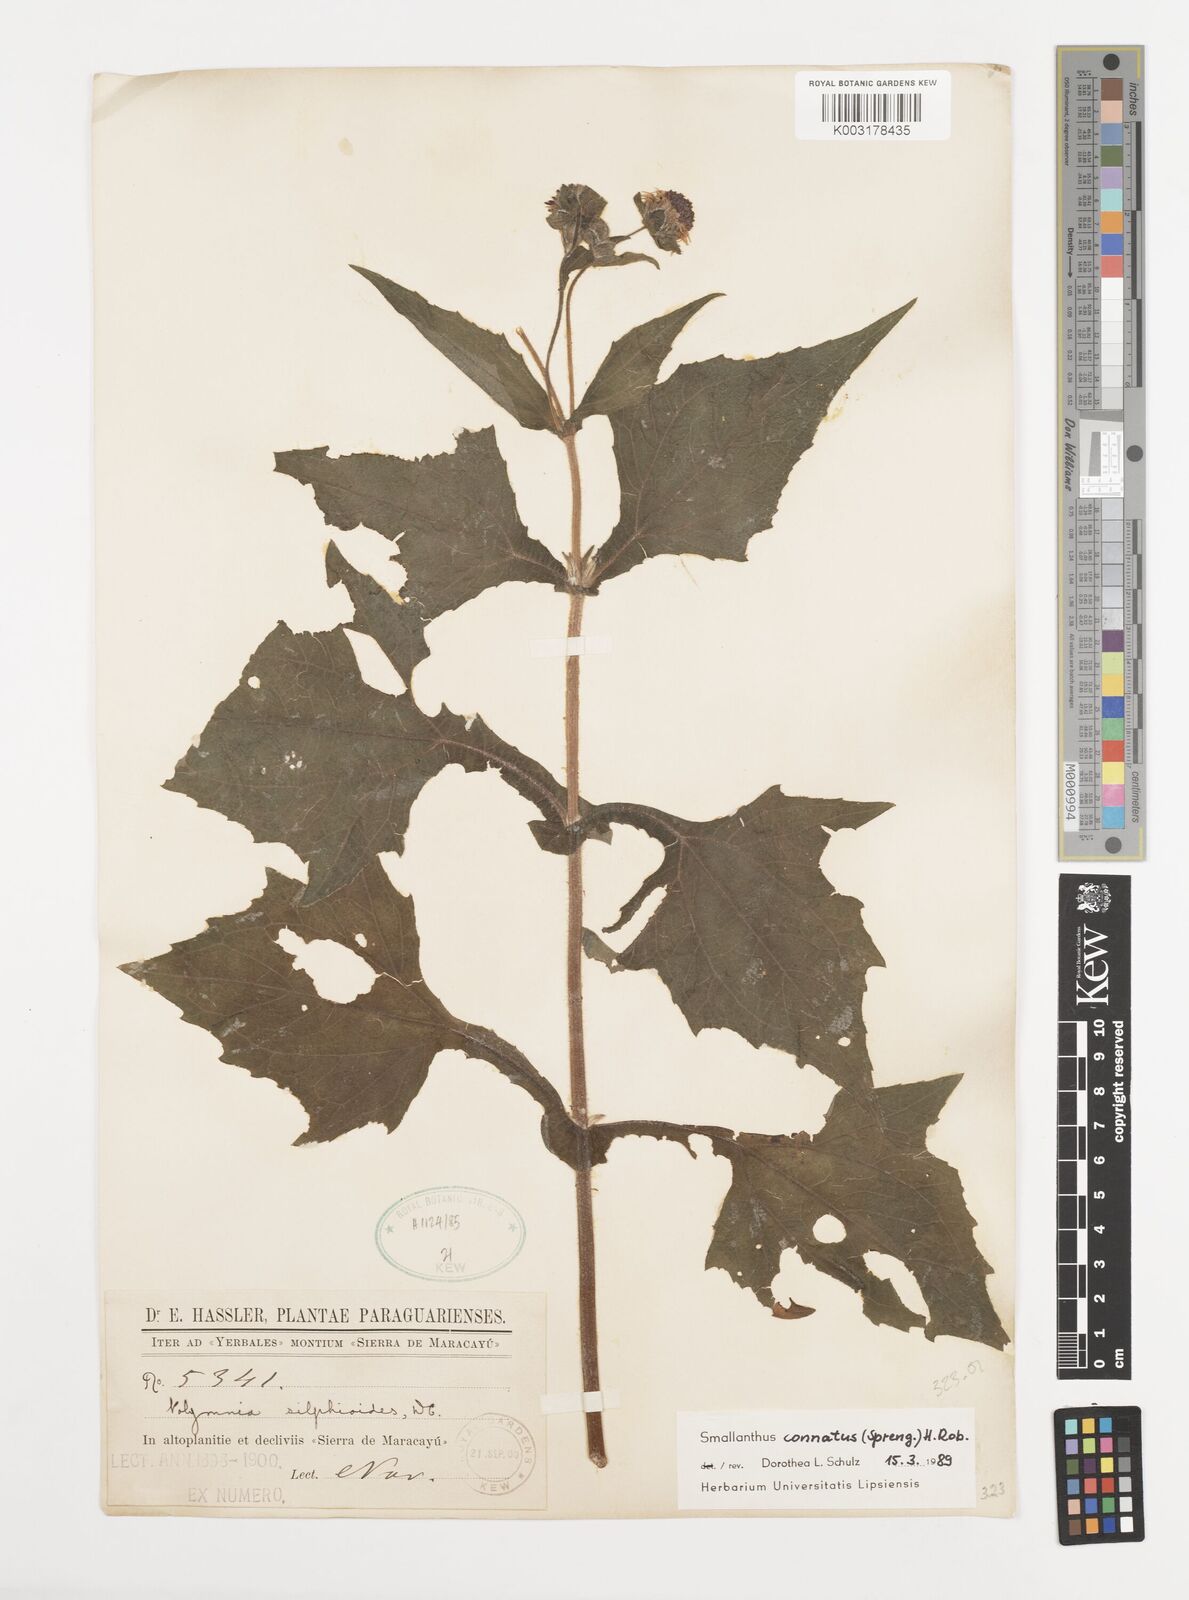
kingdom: Plantae
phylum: Tracheophyta
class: Magnoliopsida
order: Asterales
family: Asteraceae
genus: Smallanthus
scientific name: Smallanthus connatus
